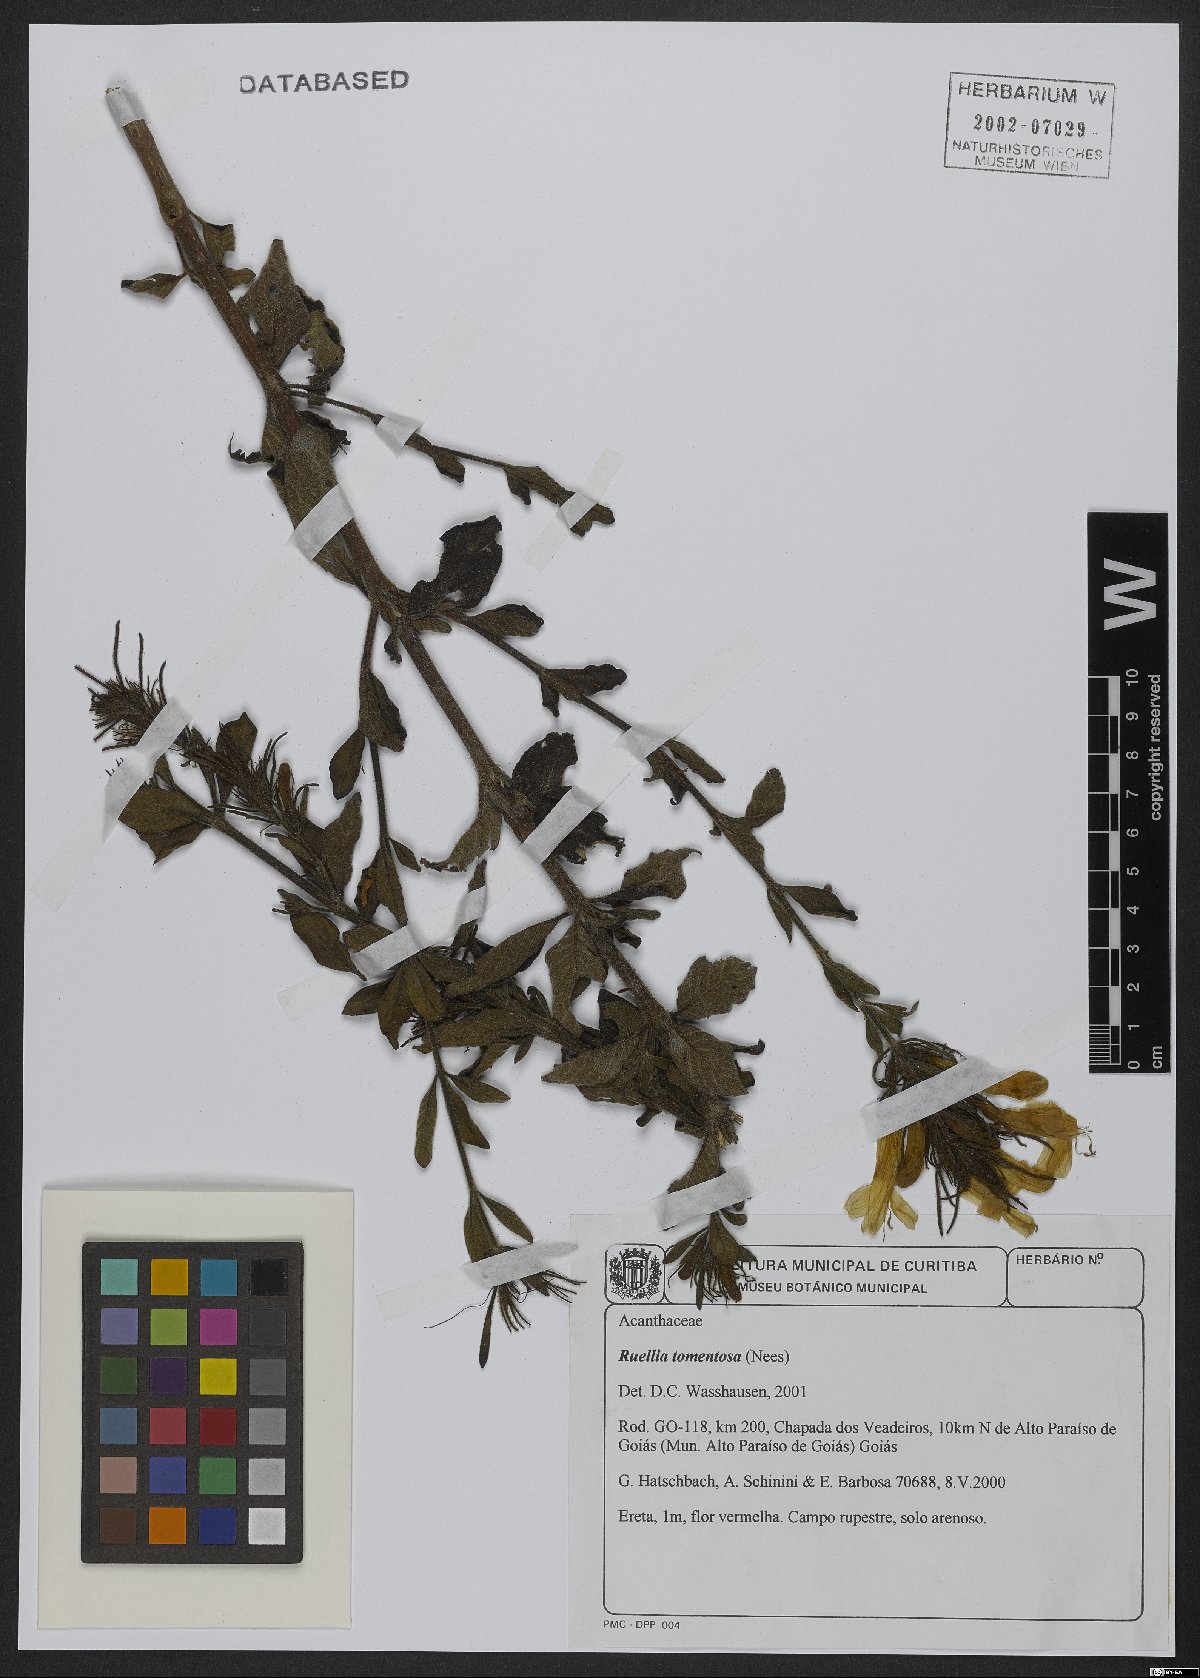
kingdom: Plantae
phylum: Tracheophyta
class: Magnoliopsida
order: Lamiales
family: Acanthaceae
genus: Strobilanthes
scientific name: Strobilanthes tomentosa
